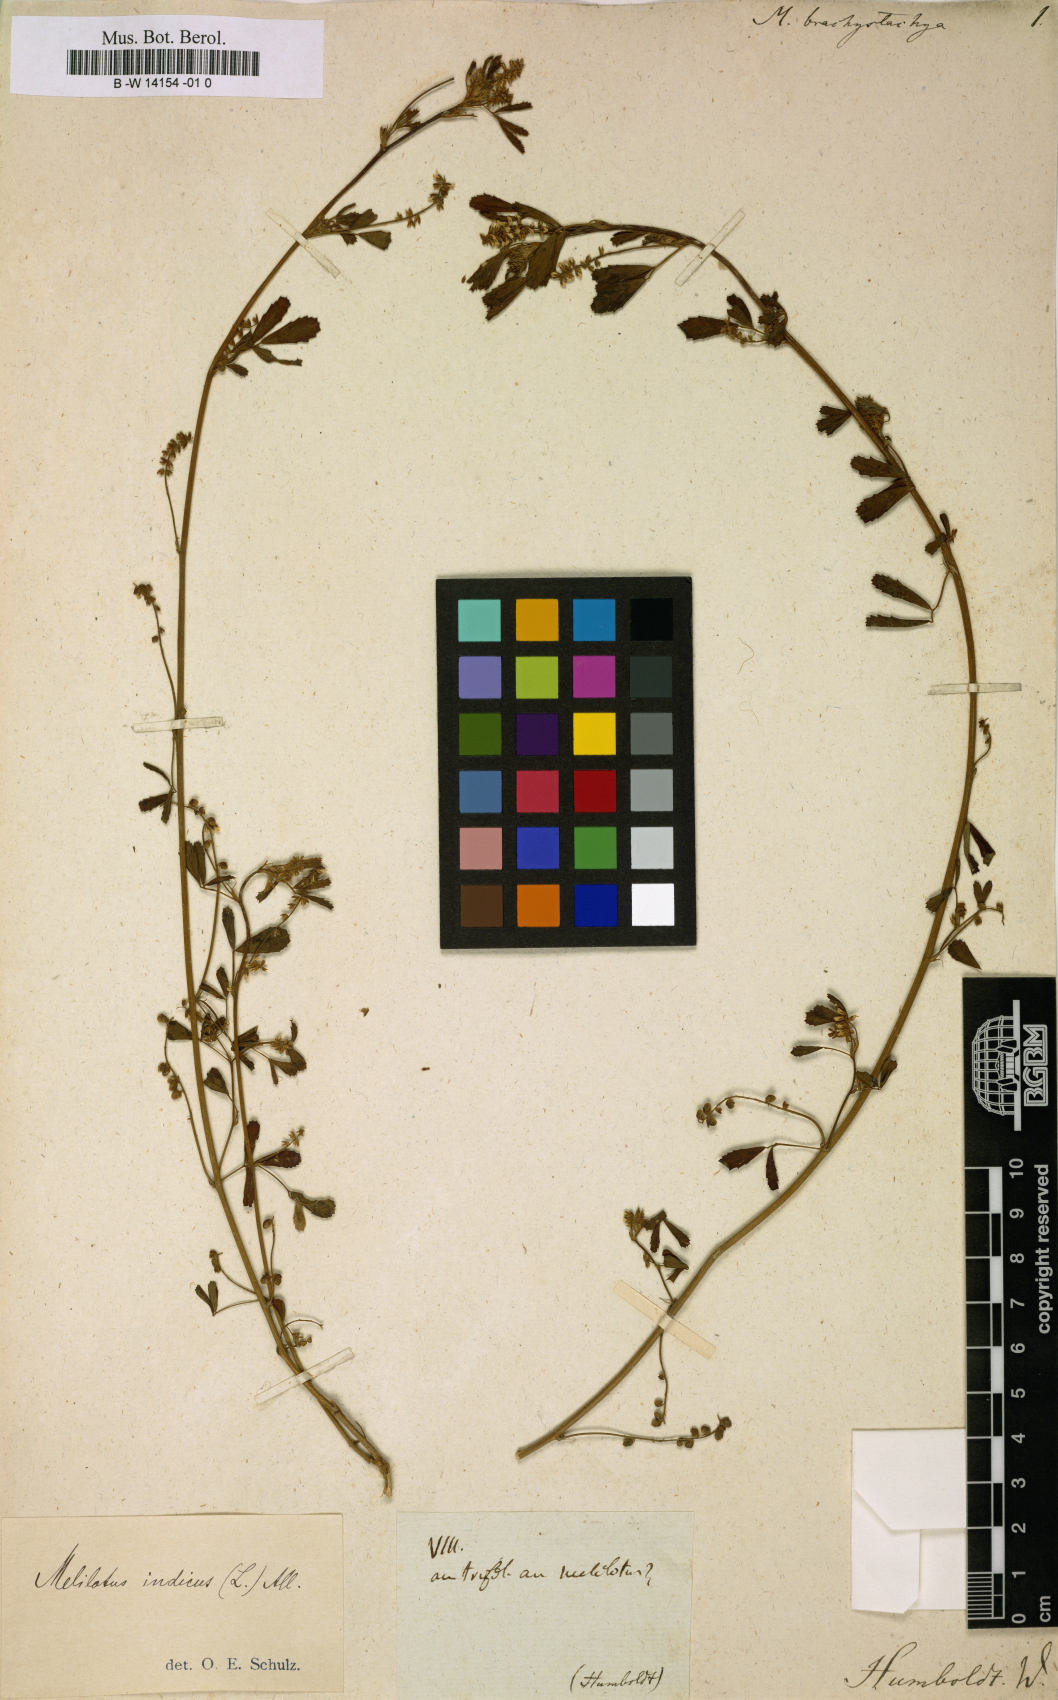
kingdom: Plantae
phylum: Tracheophyta
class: Magnoliopsida
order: Fabales
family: Fabaceae
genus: Melilotus
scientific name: Melilotus indicus
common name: Small melilot
